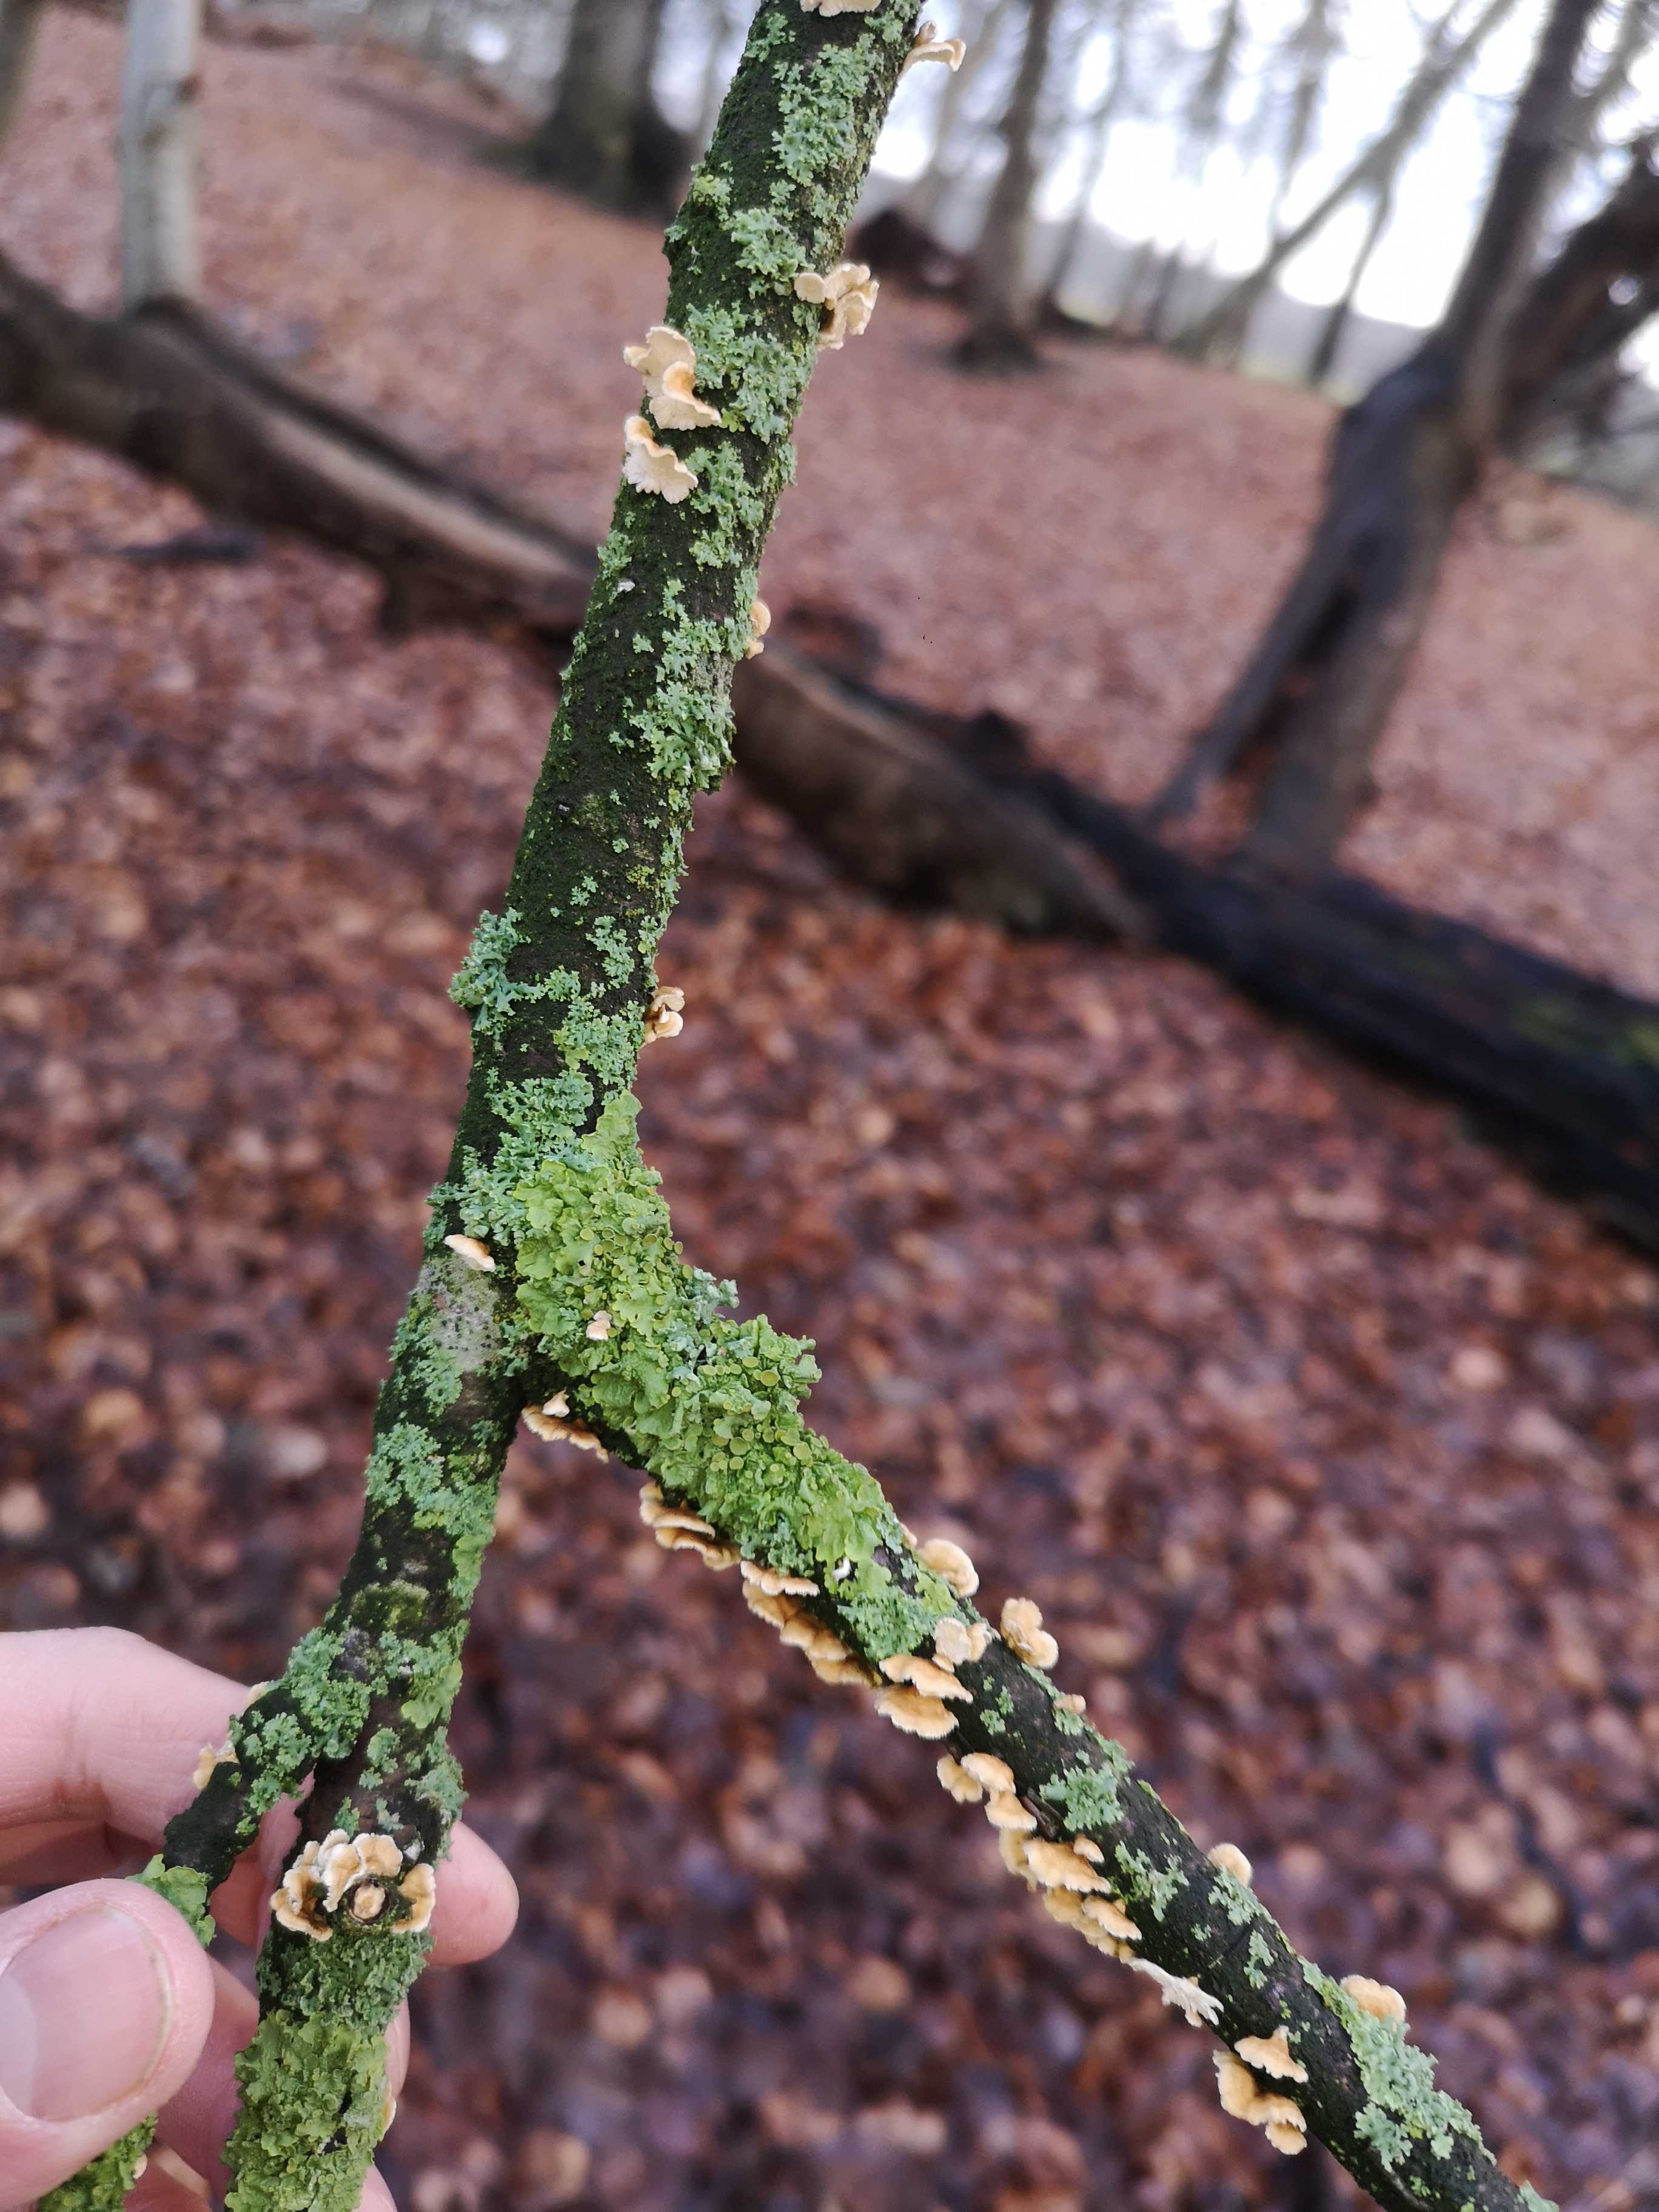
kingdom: Fungi
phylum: Basidiomycota
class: Agaricomycetes
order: Amylocorticiales
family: Amylocorticiaceae
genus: Plicaturopsis
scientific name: Plicaturopsis crispa
